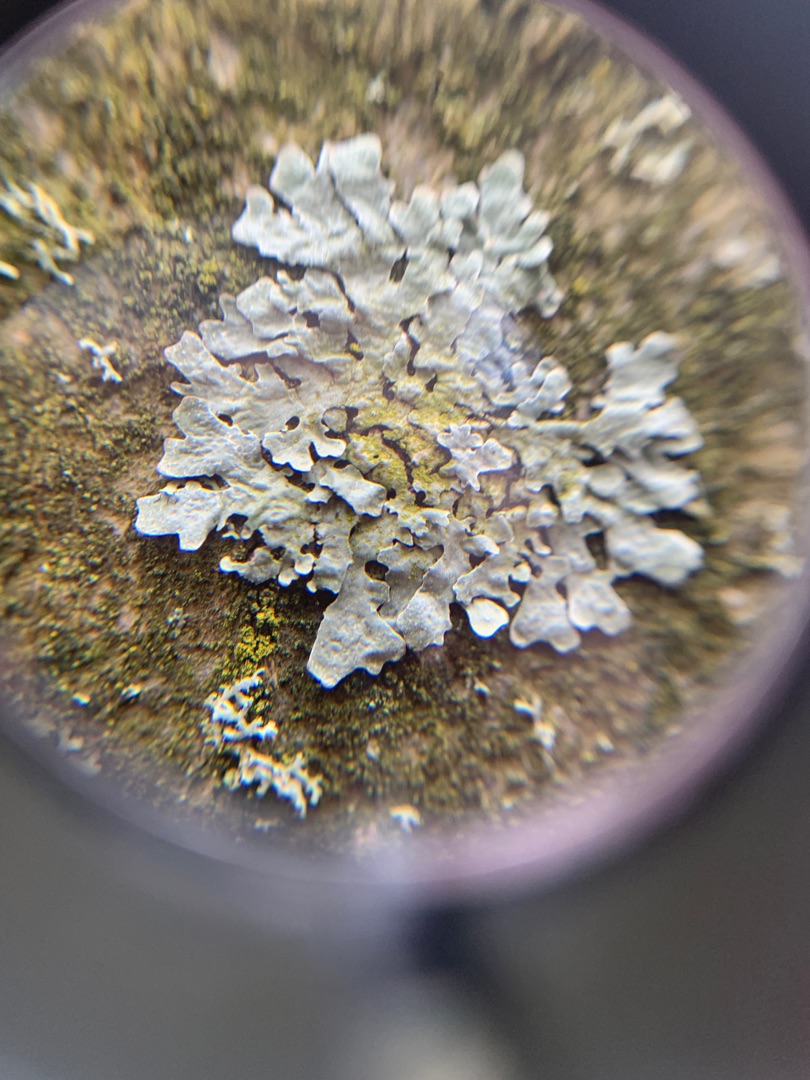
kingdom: Fungi
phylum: Ascomycota
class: Lecanoromycetes
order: Lecanorales
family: Parmeliaceae
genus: Parmelia
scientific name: Parmelia sulcata
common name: Rynket skållav
